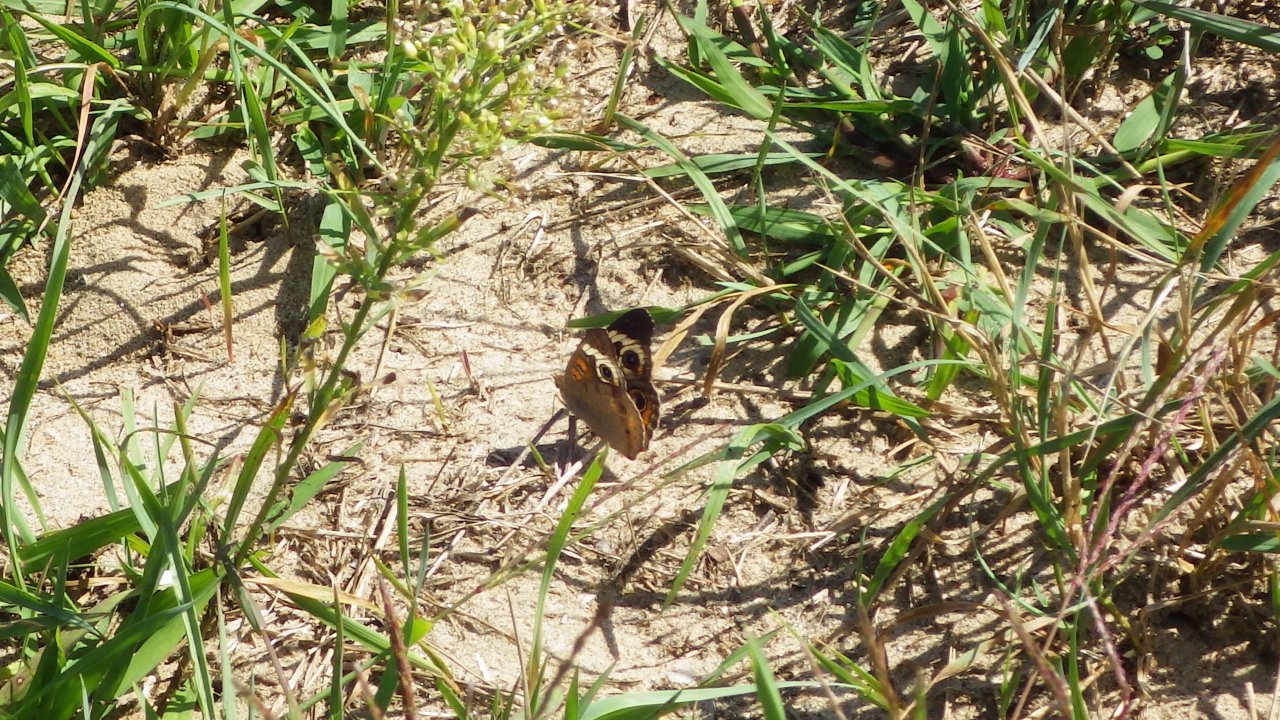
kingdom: Animalia
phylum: Arthropoda
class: Insecta
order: Lepidoptera
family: Nymphalidae
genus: Junonia
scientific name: Junonia coenia
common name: Common Buckeye
